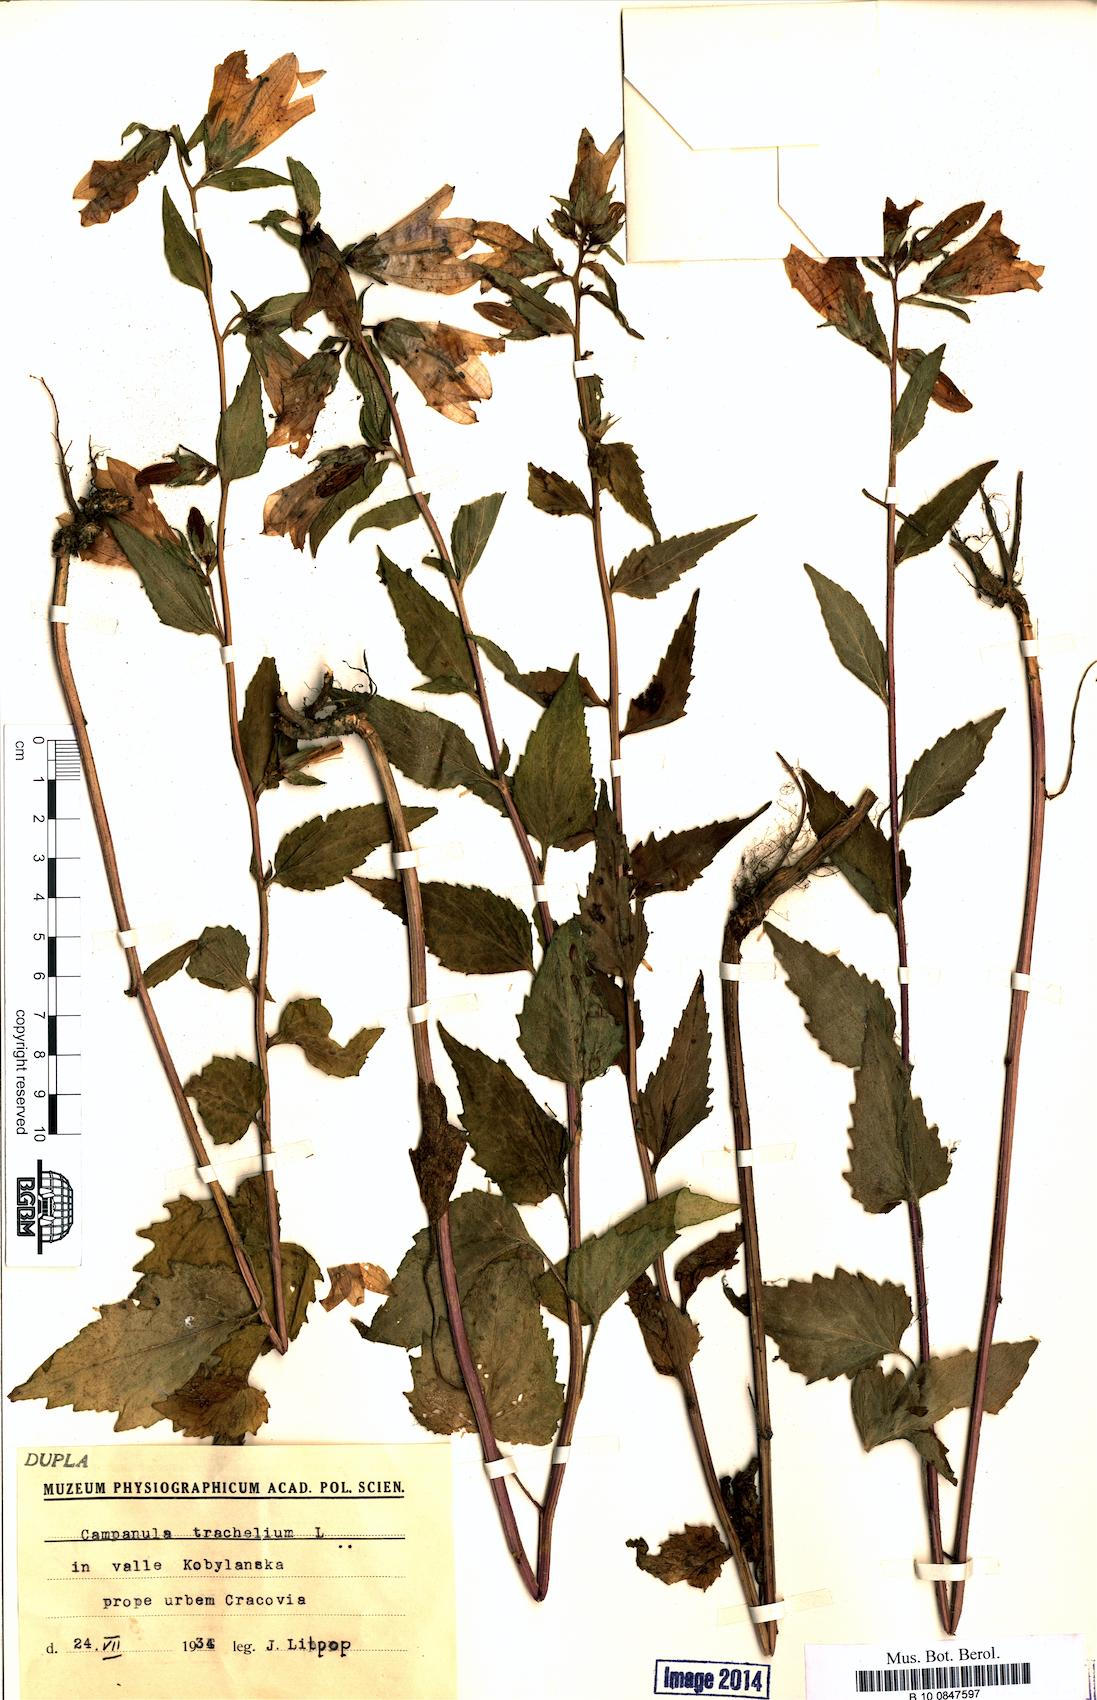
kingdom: Plantae
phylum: Tracheophyta
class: Magnoliopsida
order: Asterales
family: Campanulaceae
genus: Campanula
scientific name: Campanula trachelium
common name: Nettle-leaved bellflower
